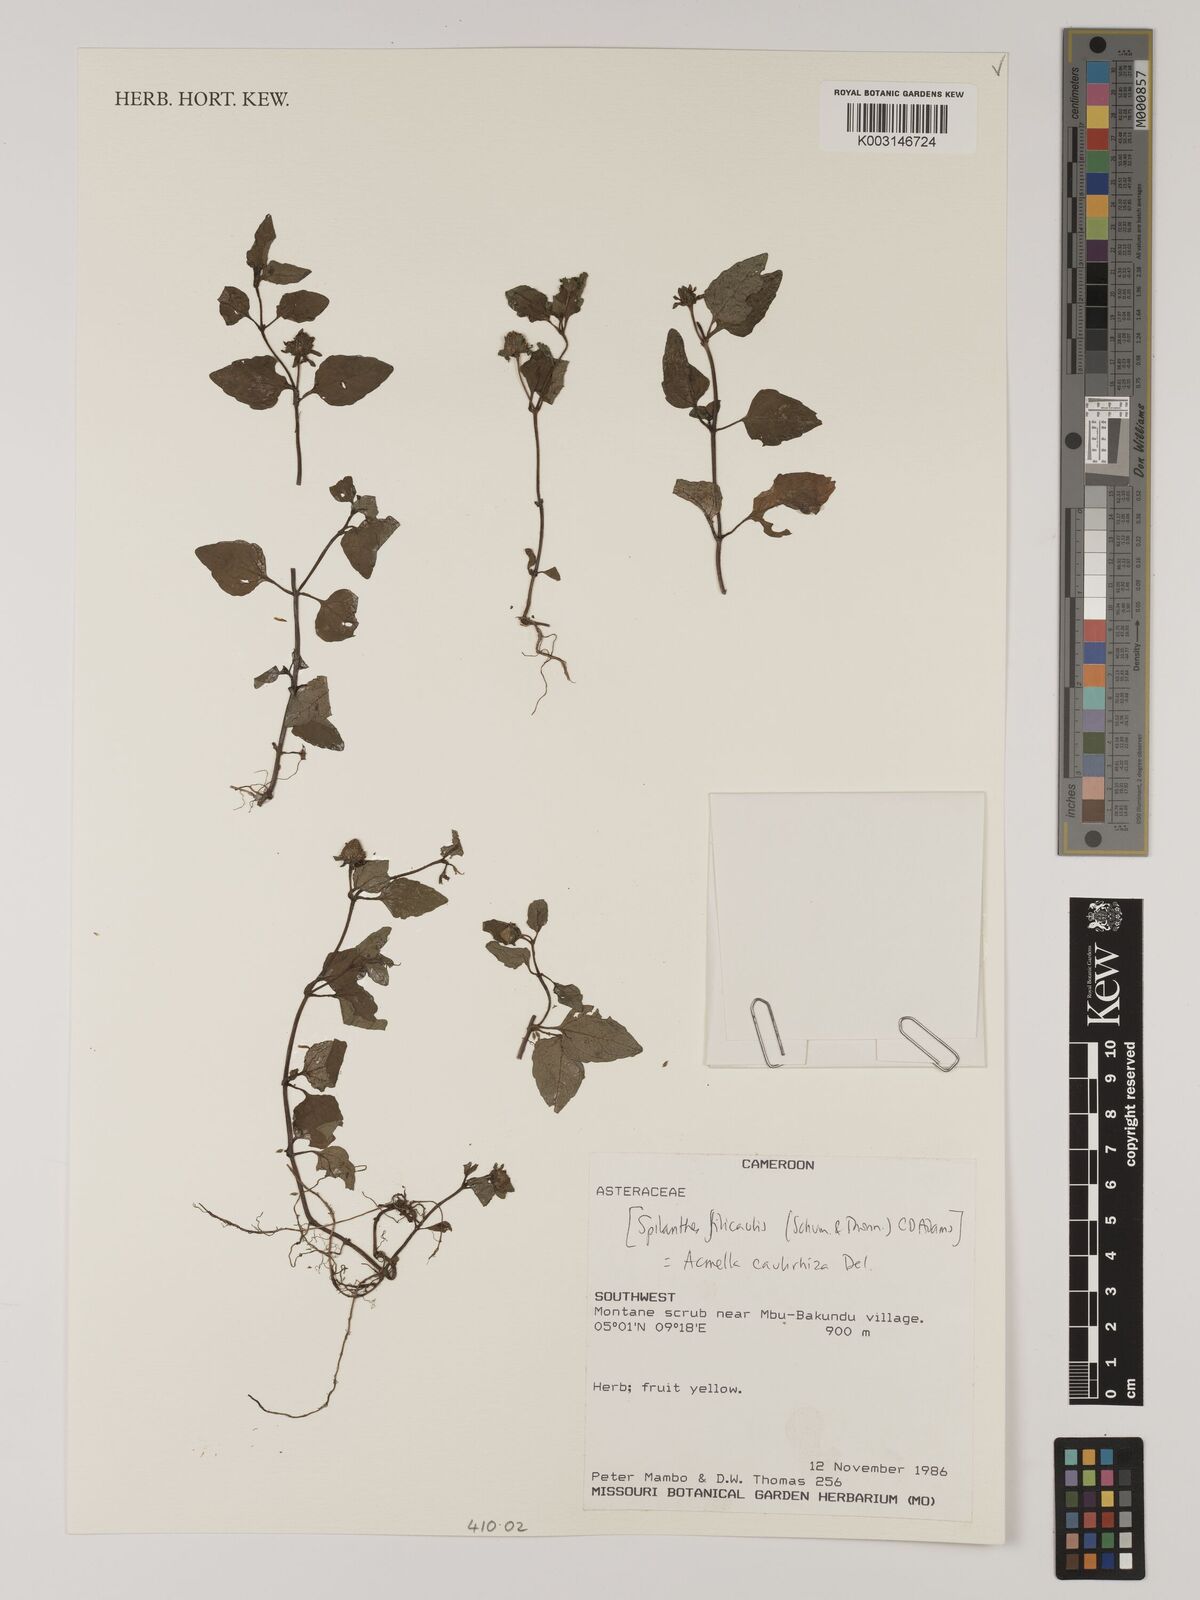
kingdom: Plantae
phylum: Tracheophyta
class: Magnoliopsida
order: Asterales
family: Asteraceae
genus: Acmella
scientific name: Acmella caulirhiza
